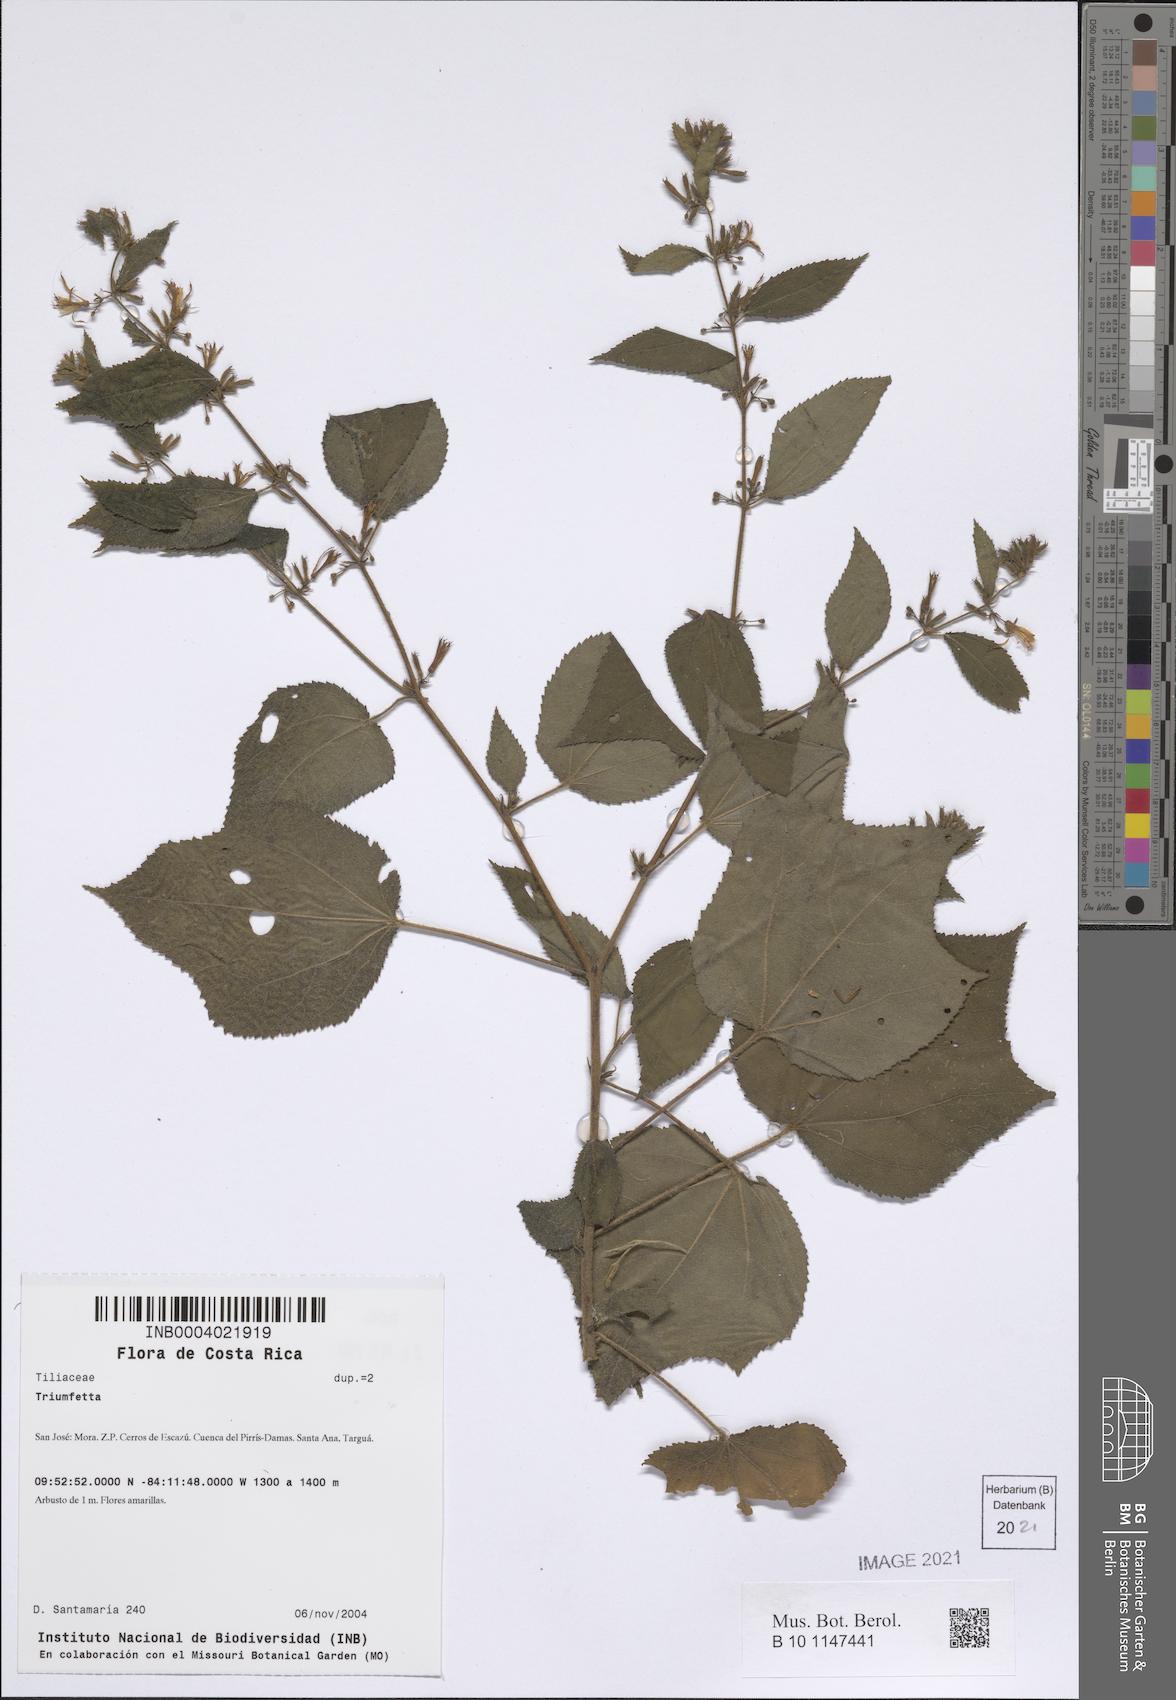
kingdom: Plantae
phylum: Tracheophyta
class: Magnoliopsida
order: Ericales
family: Symplocaceae
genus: Symplocos
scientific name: Symplocos
